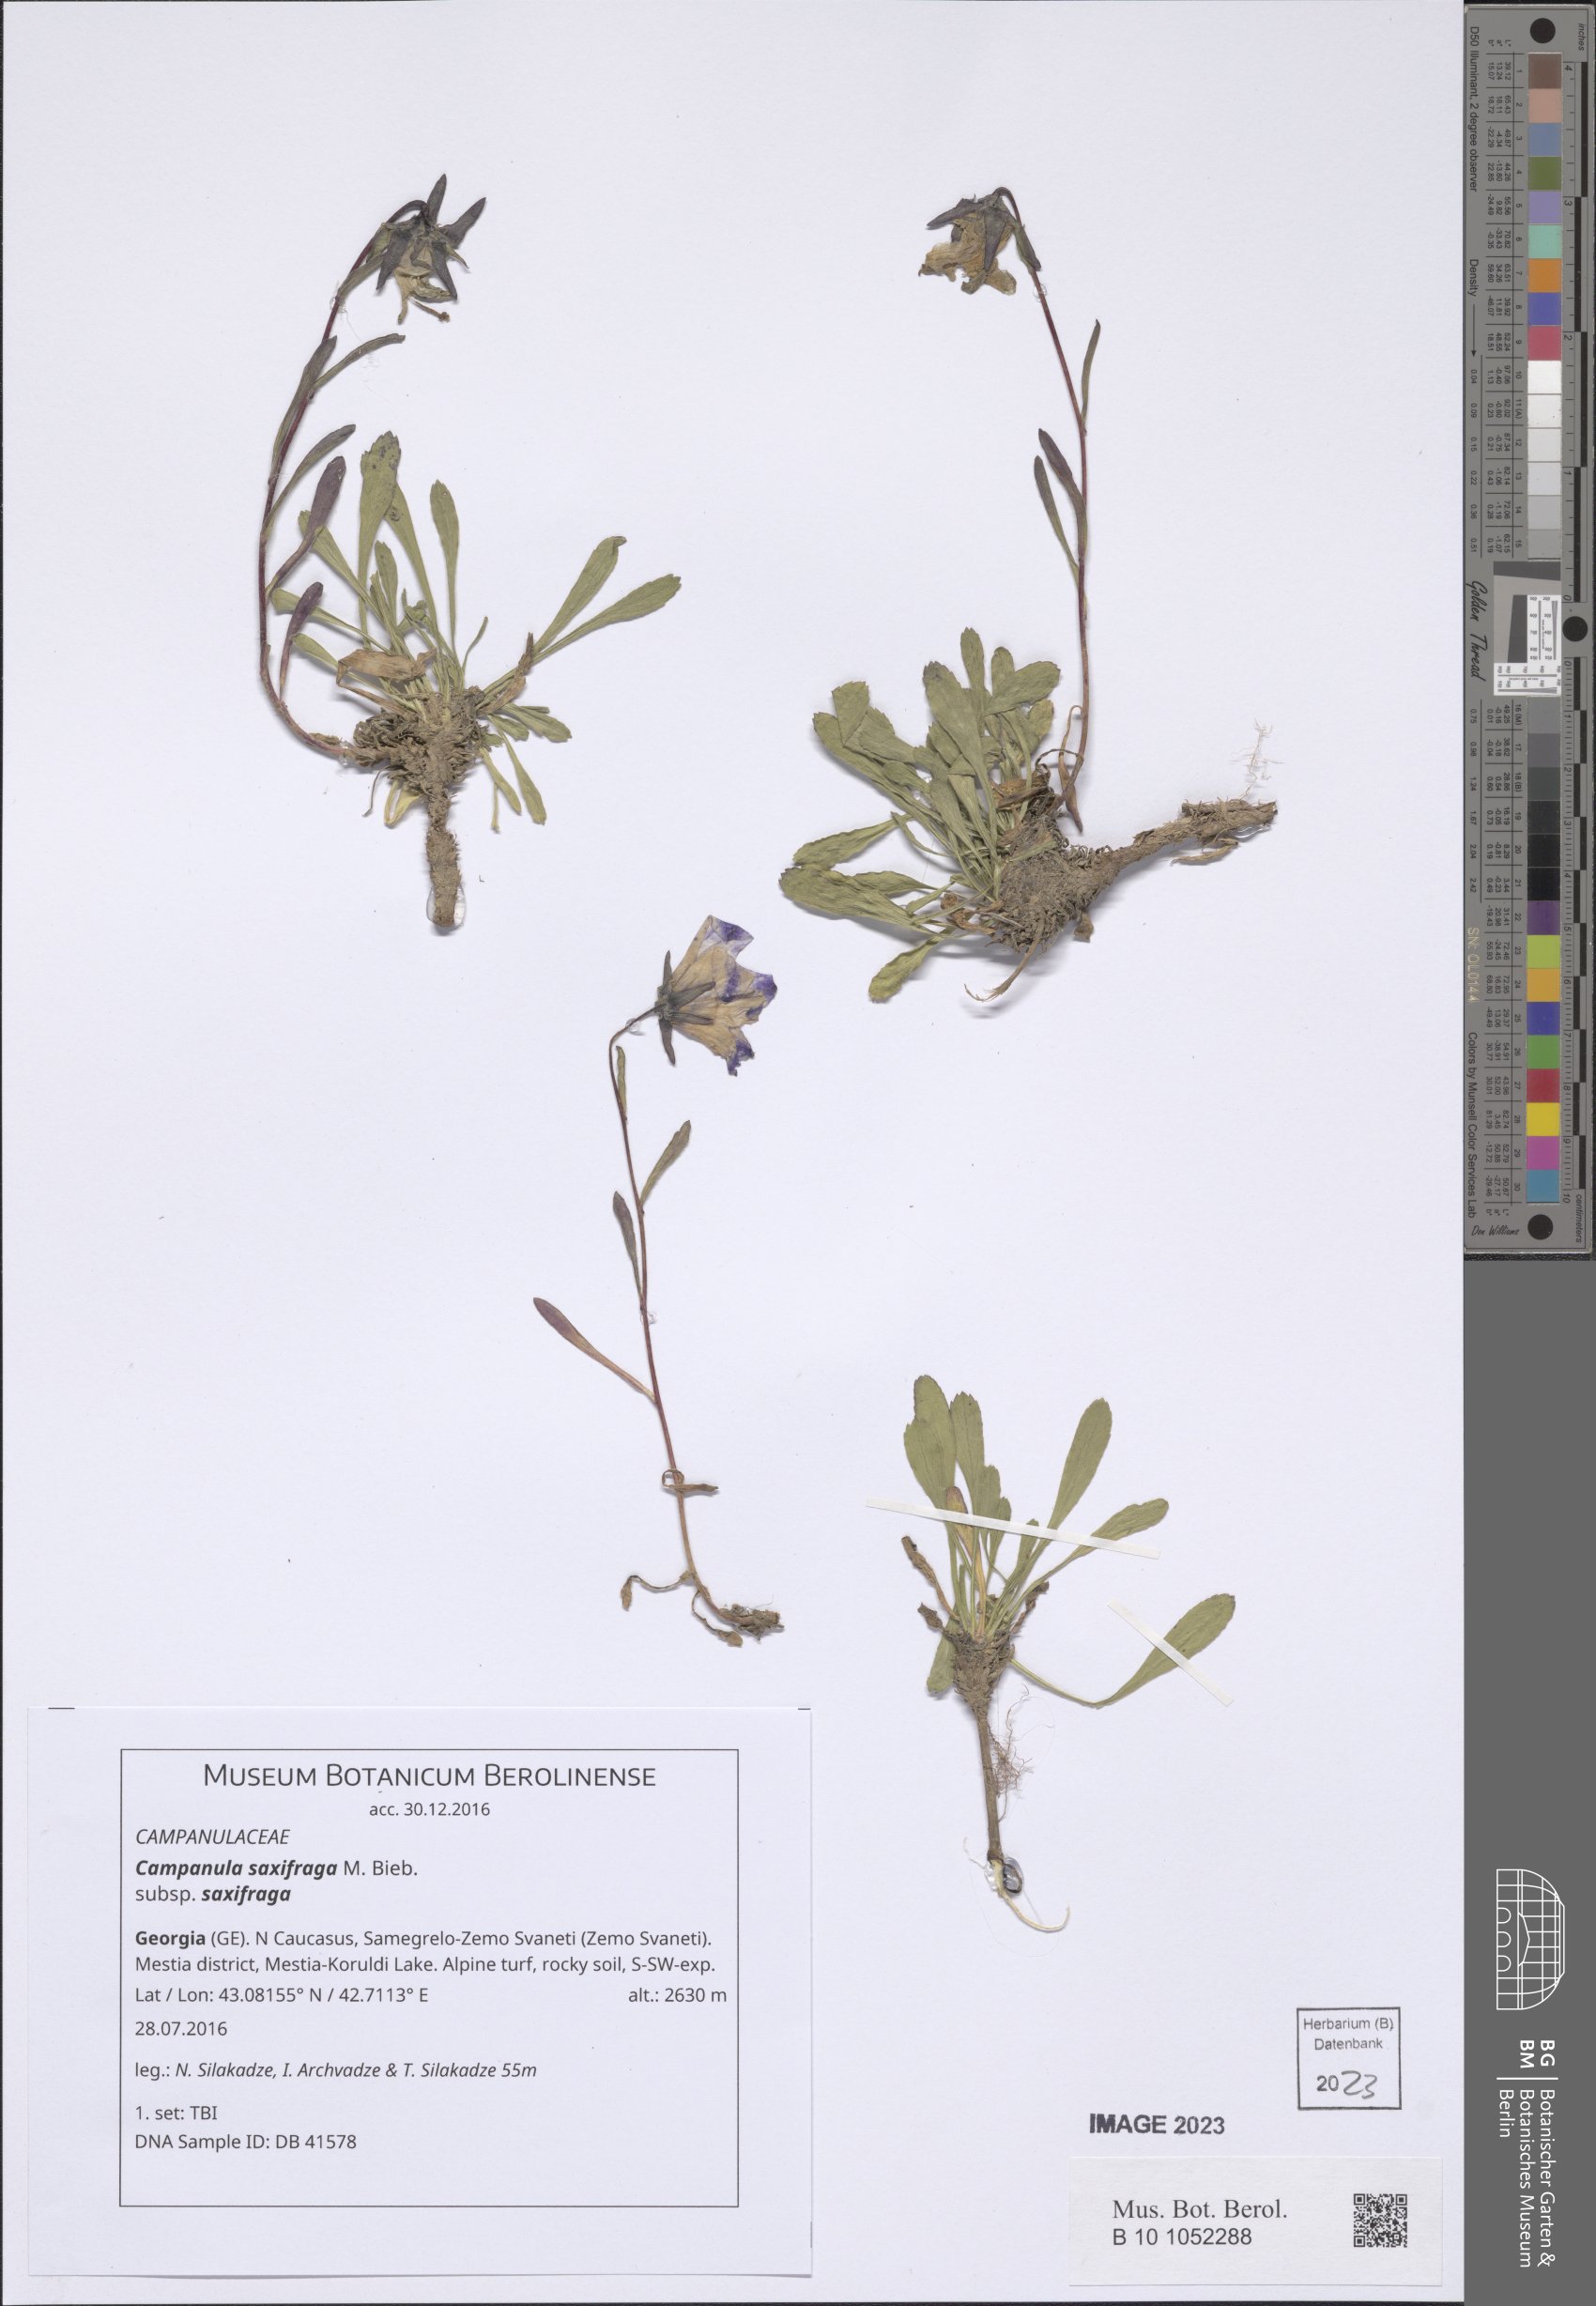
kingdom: Plantae
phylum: Tracheophyta
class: Magnoliopsida
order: Asterales
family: Campanulaceae
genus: Campanula
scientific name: Campanula saxifraga
